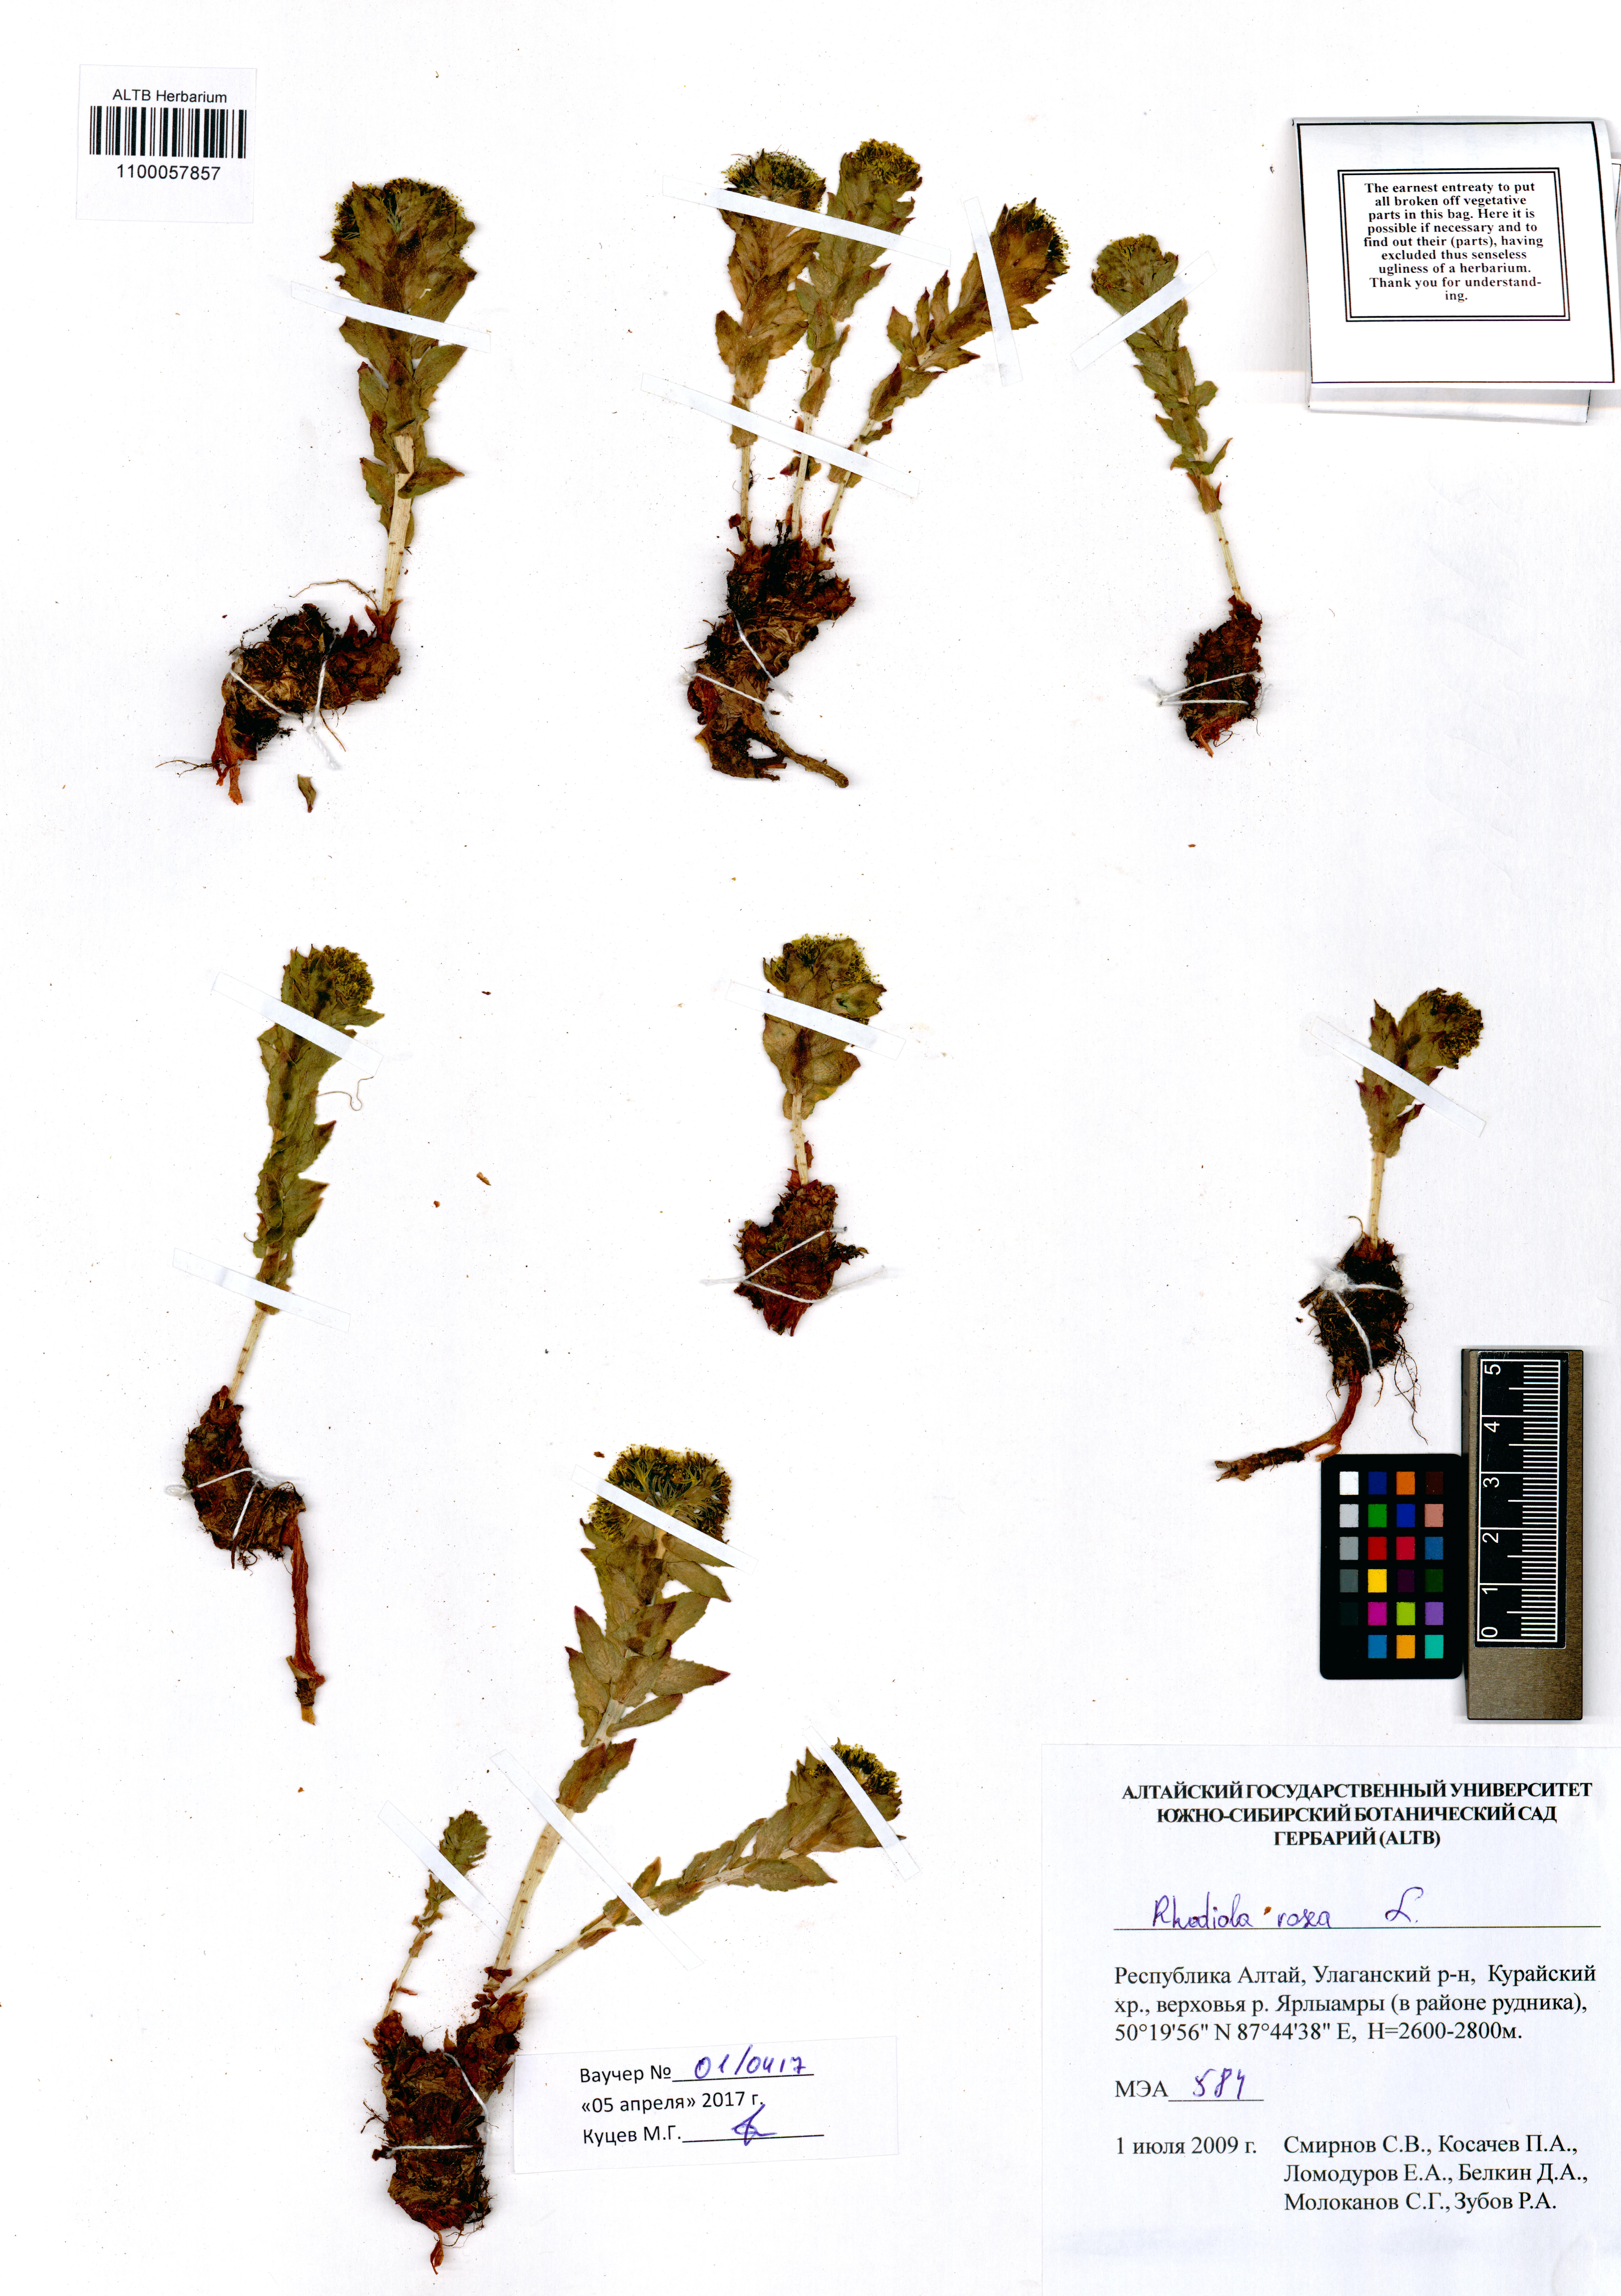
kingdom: Plantae
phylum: Tracheophyta
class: Magnoliopsida
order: Saxifragales
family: Crassulaceae
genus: Rhodiola
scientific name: Rhodiola rosea
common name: Roseroot
